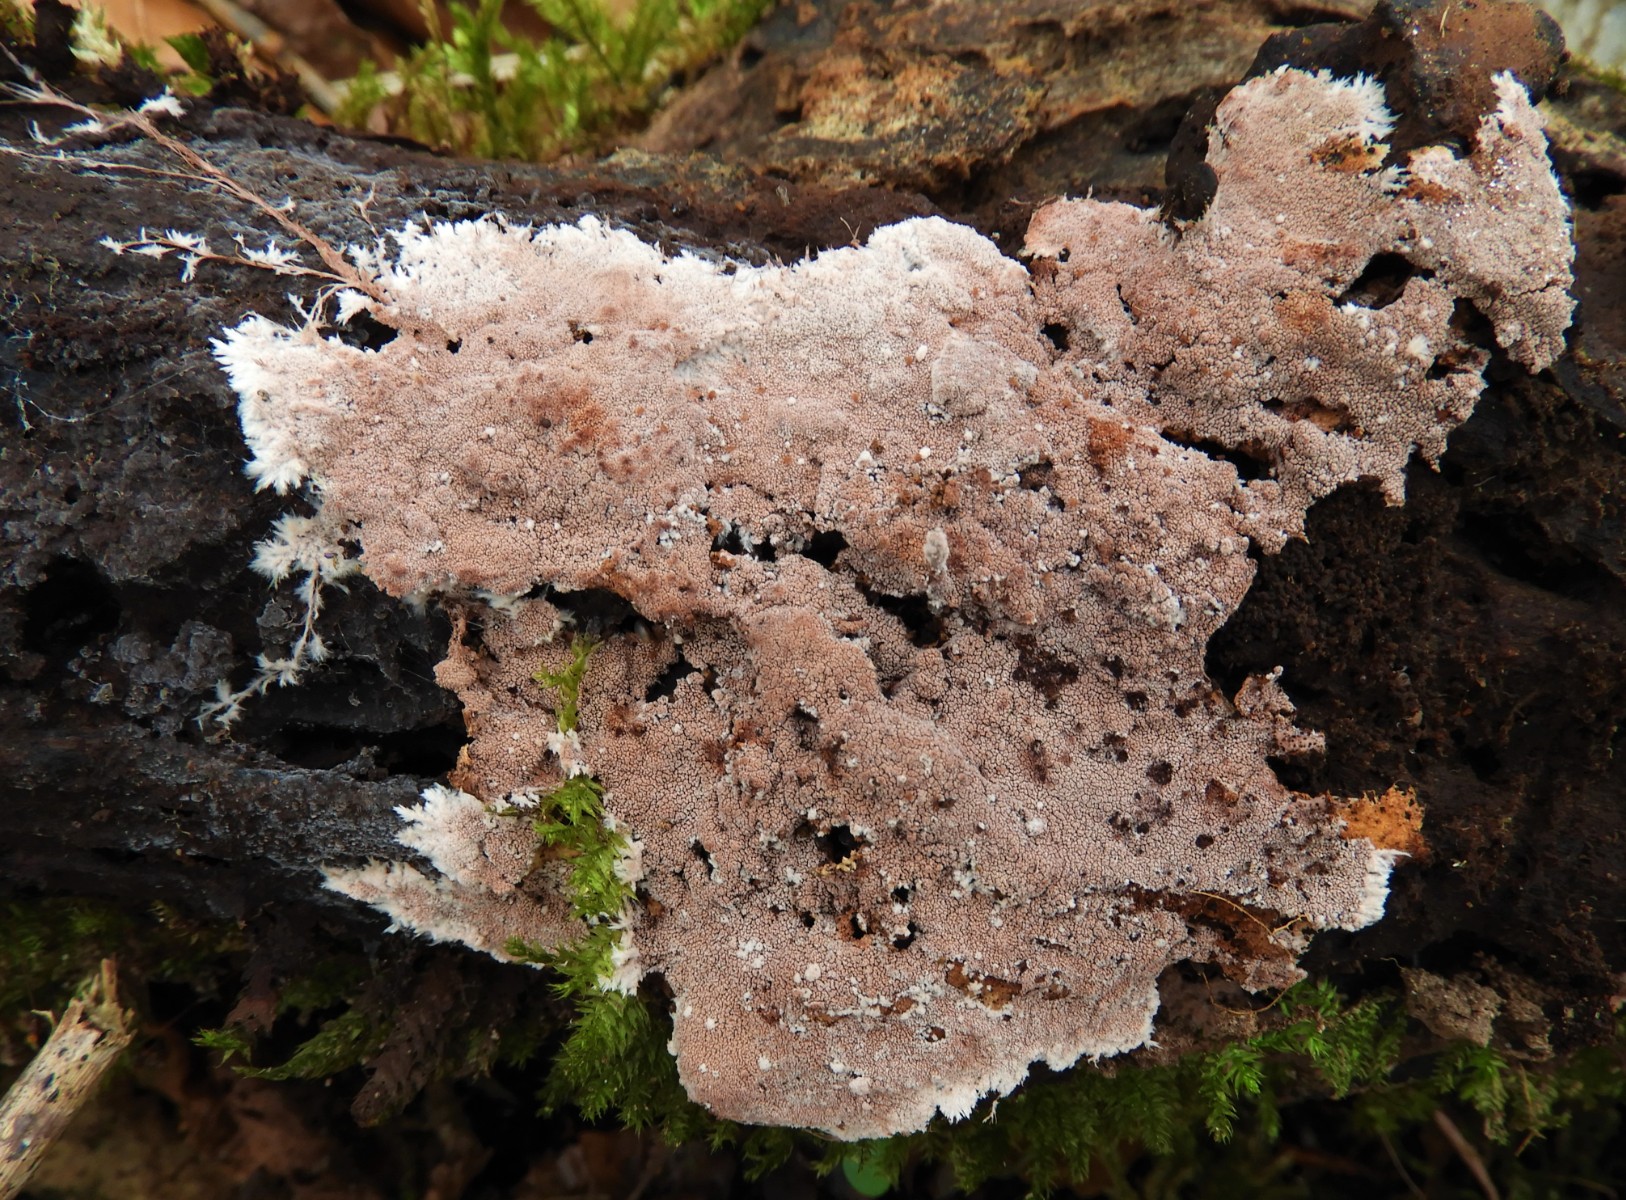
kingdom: Fungi
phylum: Basidiomycota
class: Agaricomycetes
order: Polyporales
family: Steccherinaceae
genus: Steccherinum
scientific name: Steccherinum fimbriatum
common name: trådet skønpig
